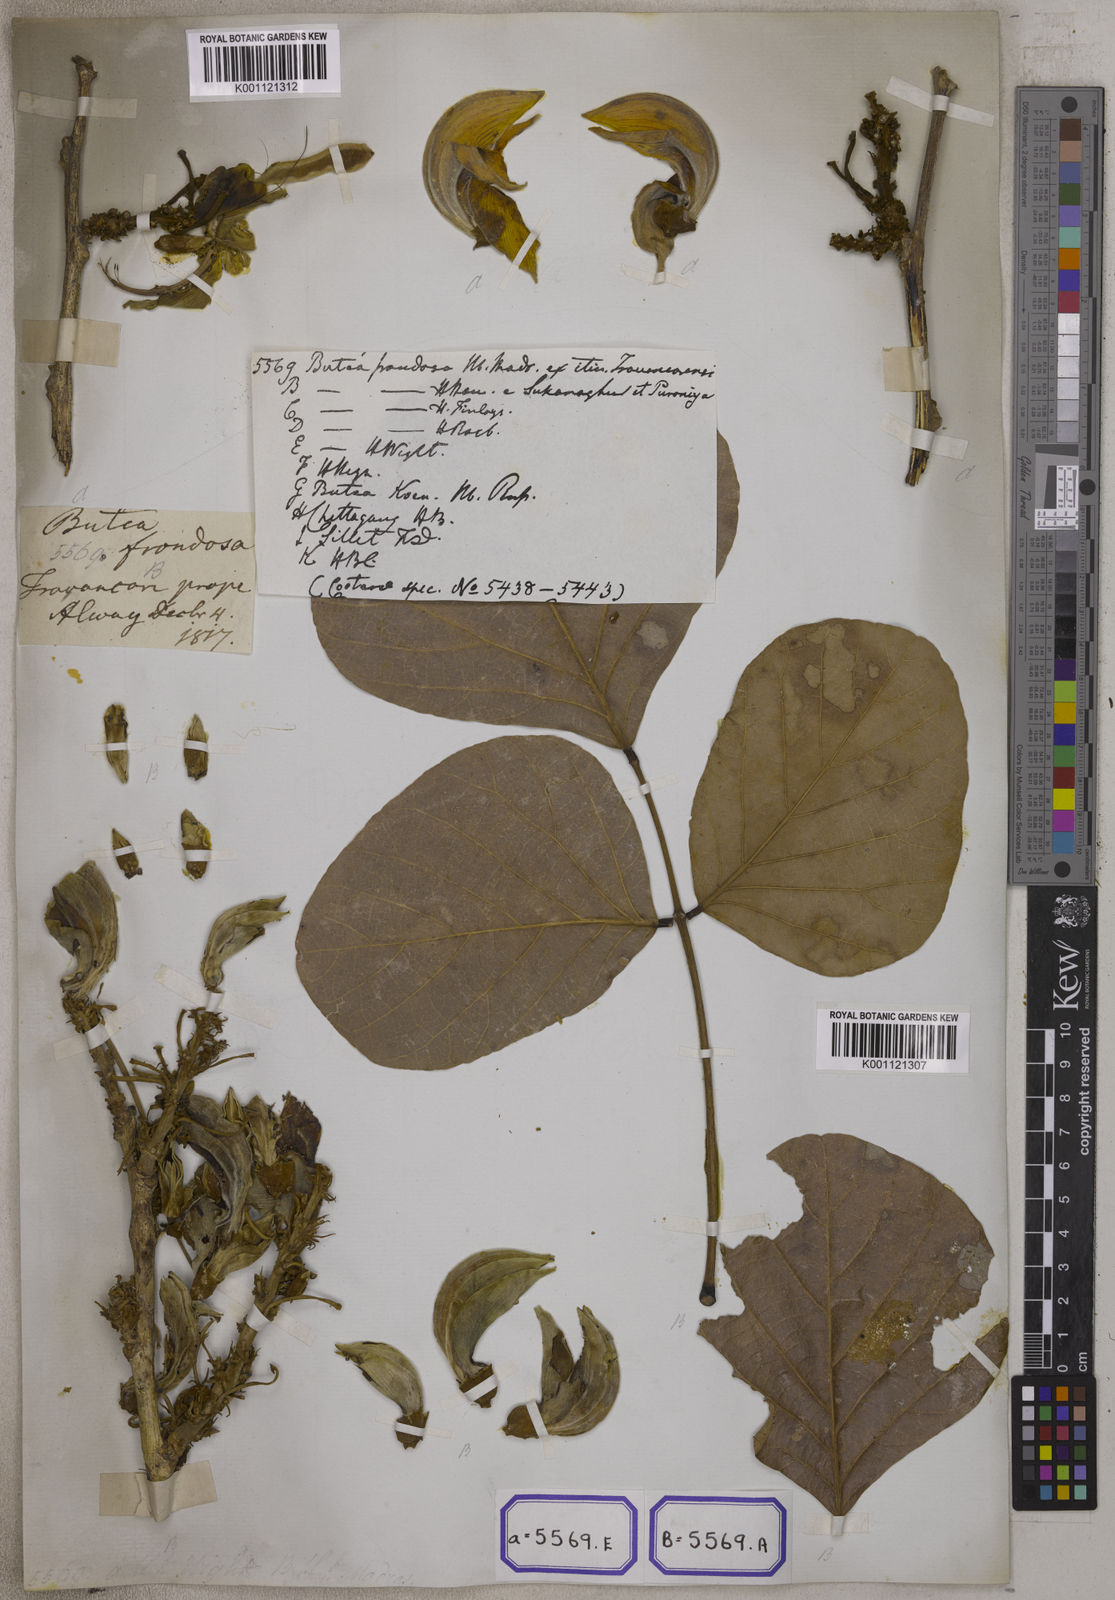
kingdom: Plantae
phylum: Tracheophyta
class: Magnoliopsida
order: Fabales
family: Fabaceae
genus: Butea
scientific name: Butea
